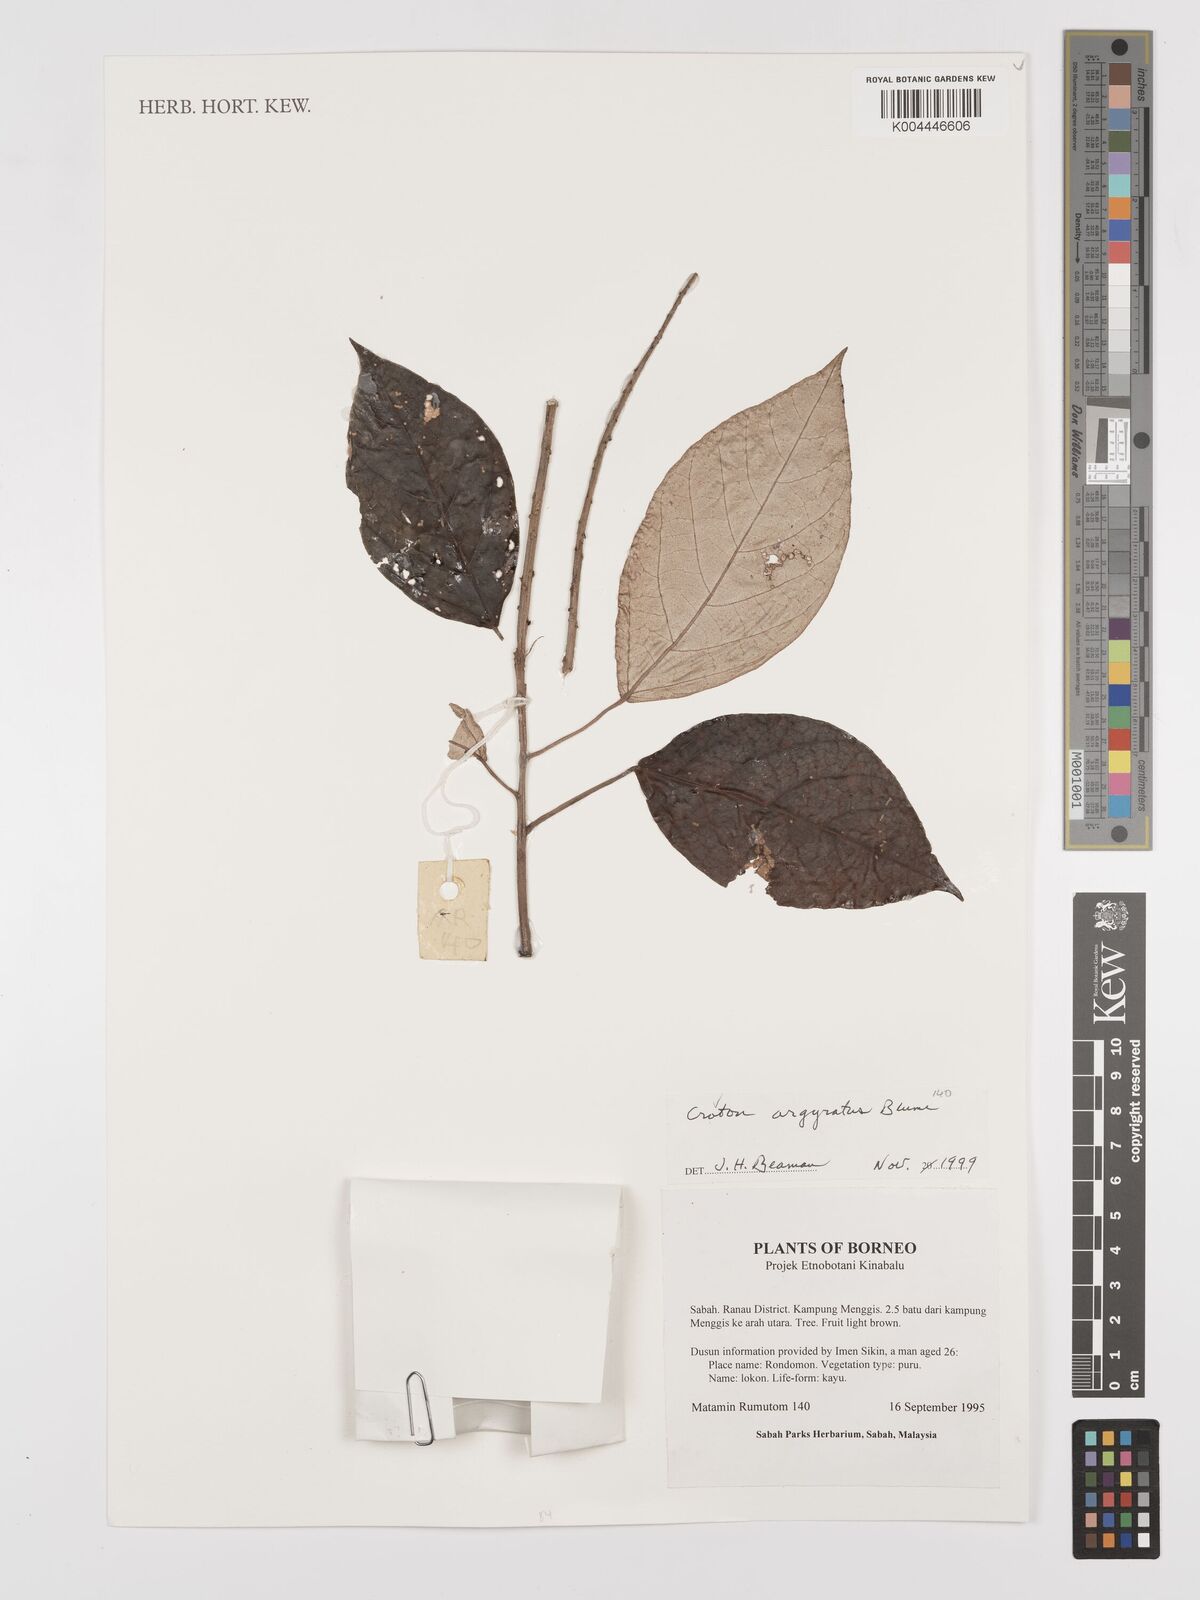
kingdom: Plantae
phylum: Tracheophyta
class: Magnoliopsida
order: Malpighiales
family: Euphorbiaceae
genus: Croton
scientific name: Croton argyratus
